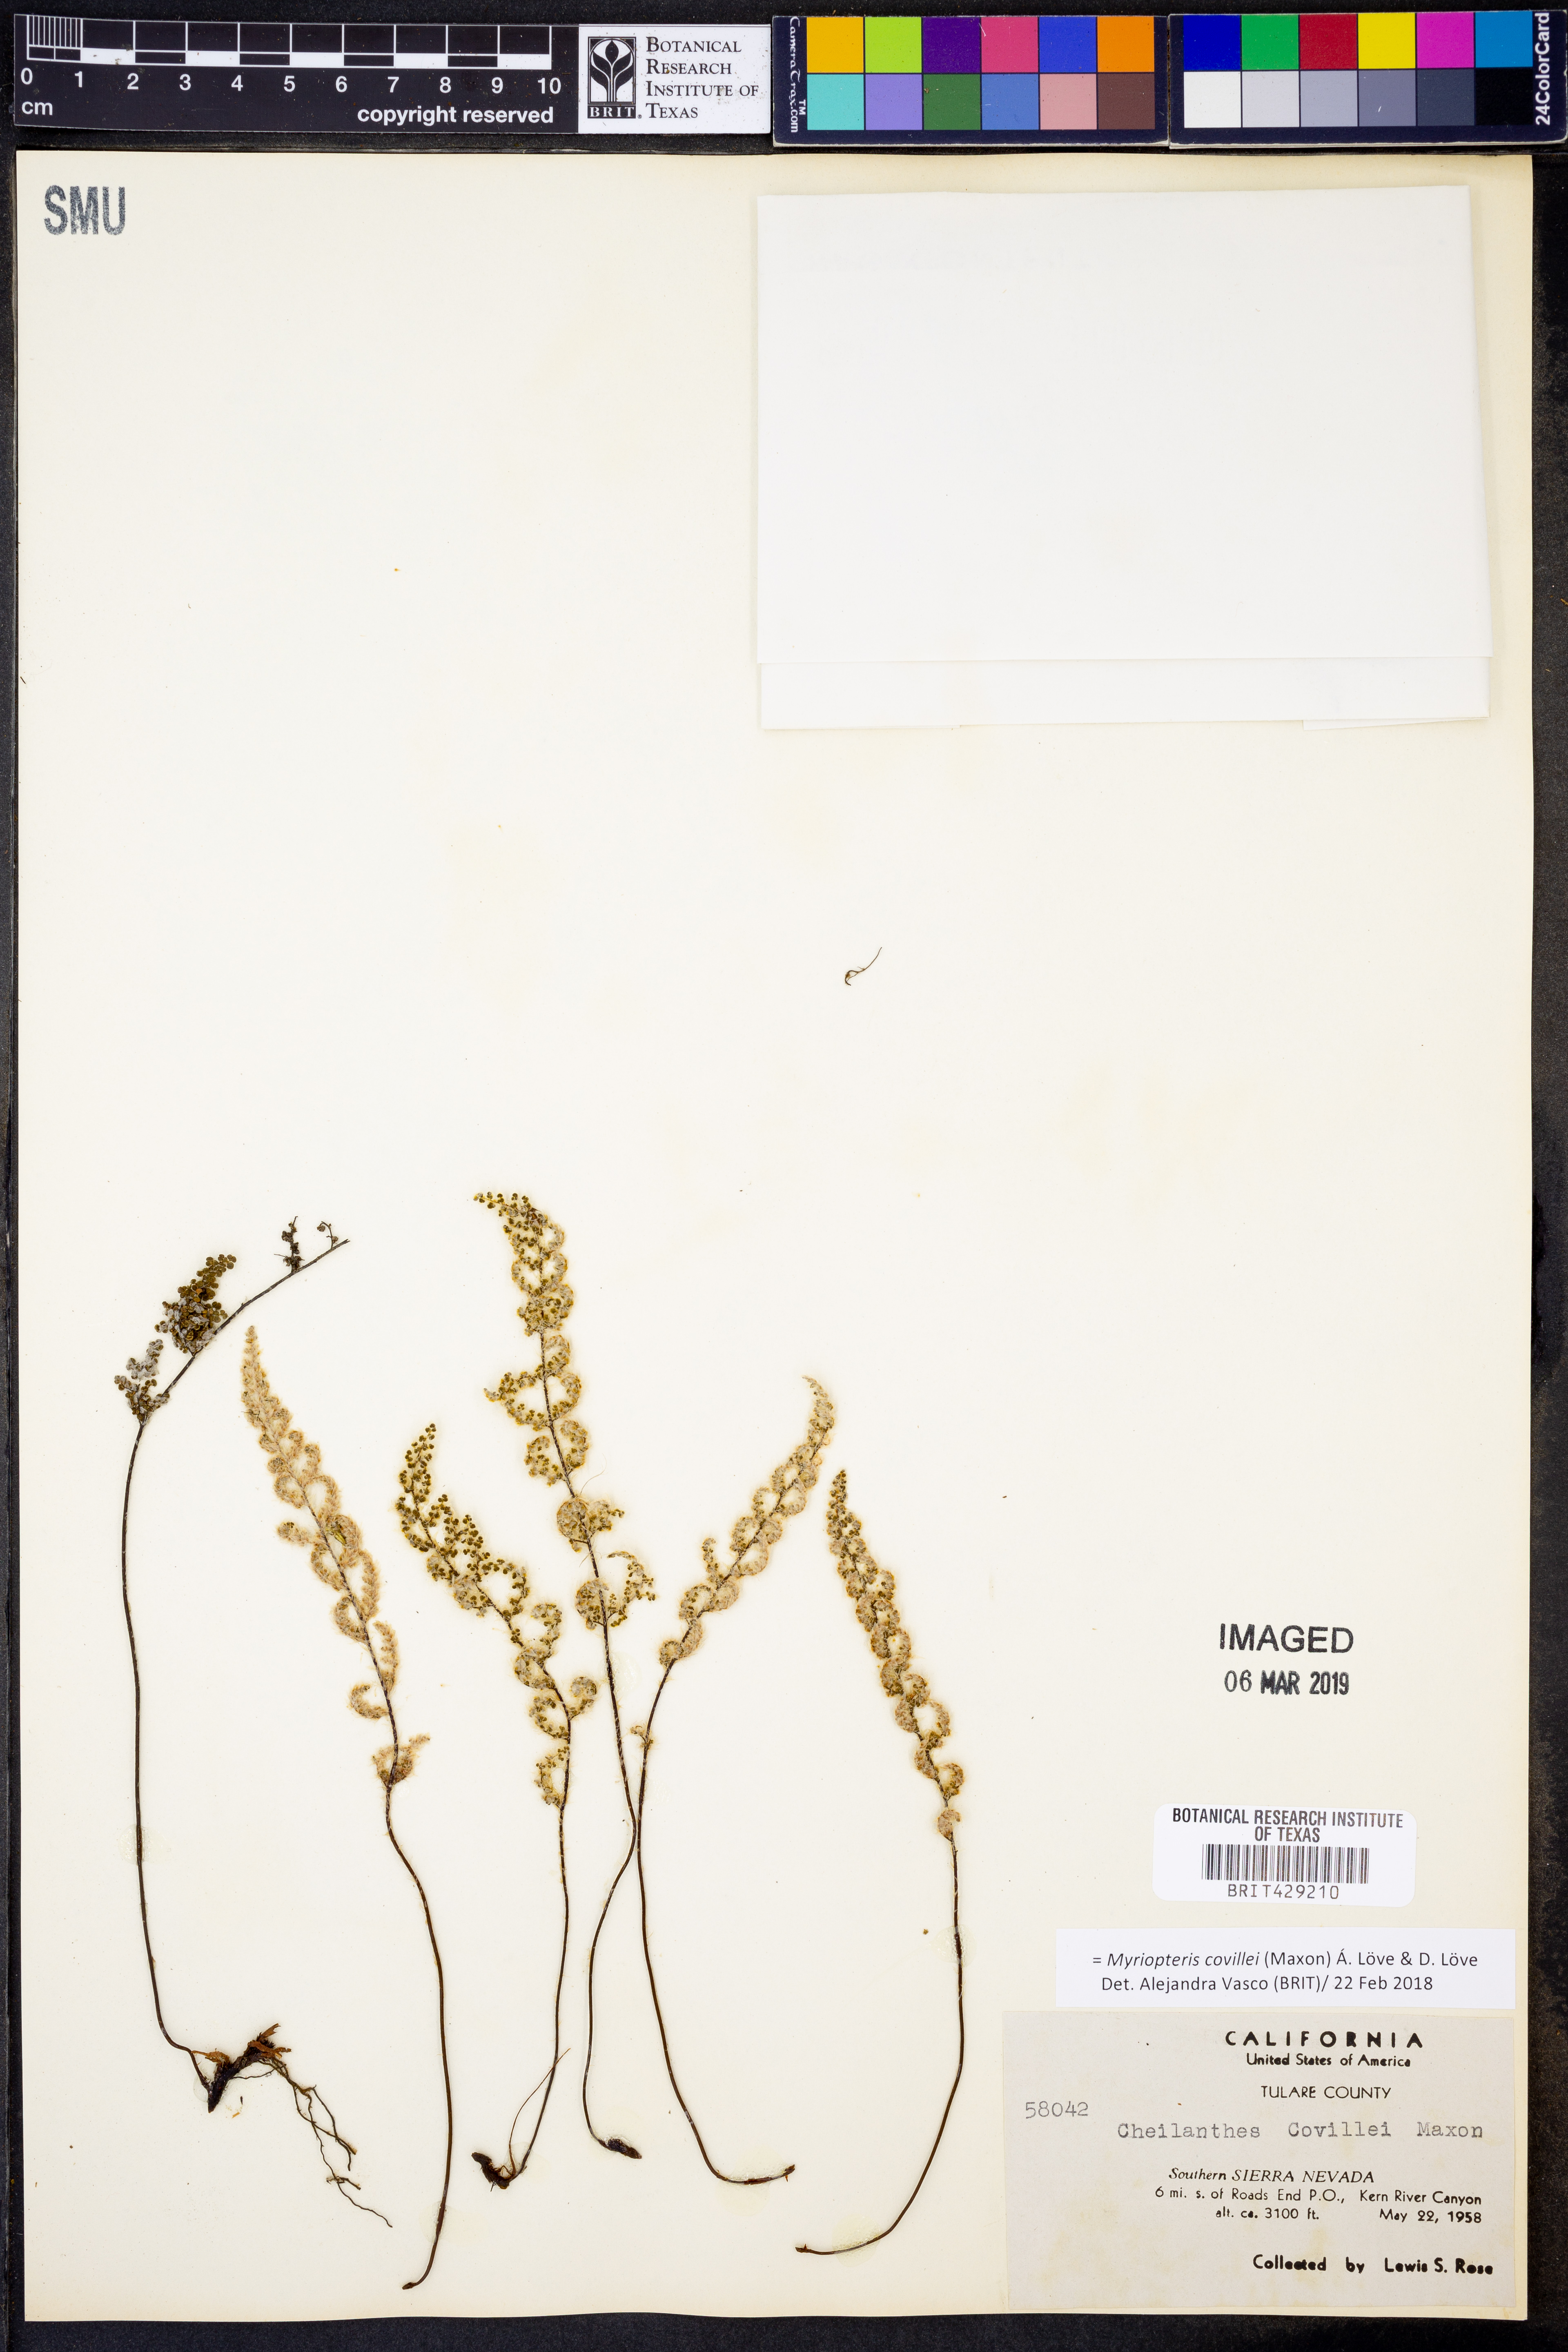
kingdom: Plantae
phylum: Tracheophyta
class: Polypodiopsida
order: Polypodiales
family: Pteridaceae
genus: Myriopteris
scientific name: Myriopteris covillei
